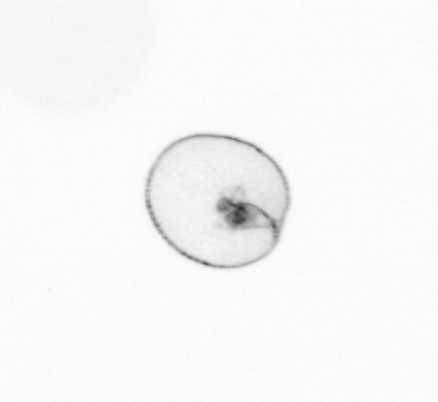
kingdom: Chromista
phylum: Myzozoa
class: Dinophyceae
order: Noctilucales
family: Noctilucaceae
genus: Noctiluca
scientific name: Noctiluca scintillans
